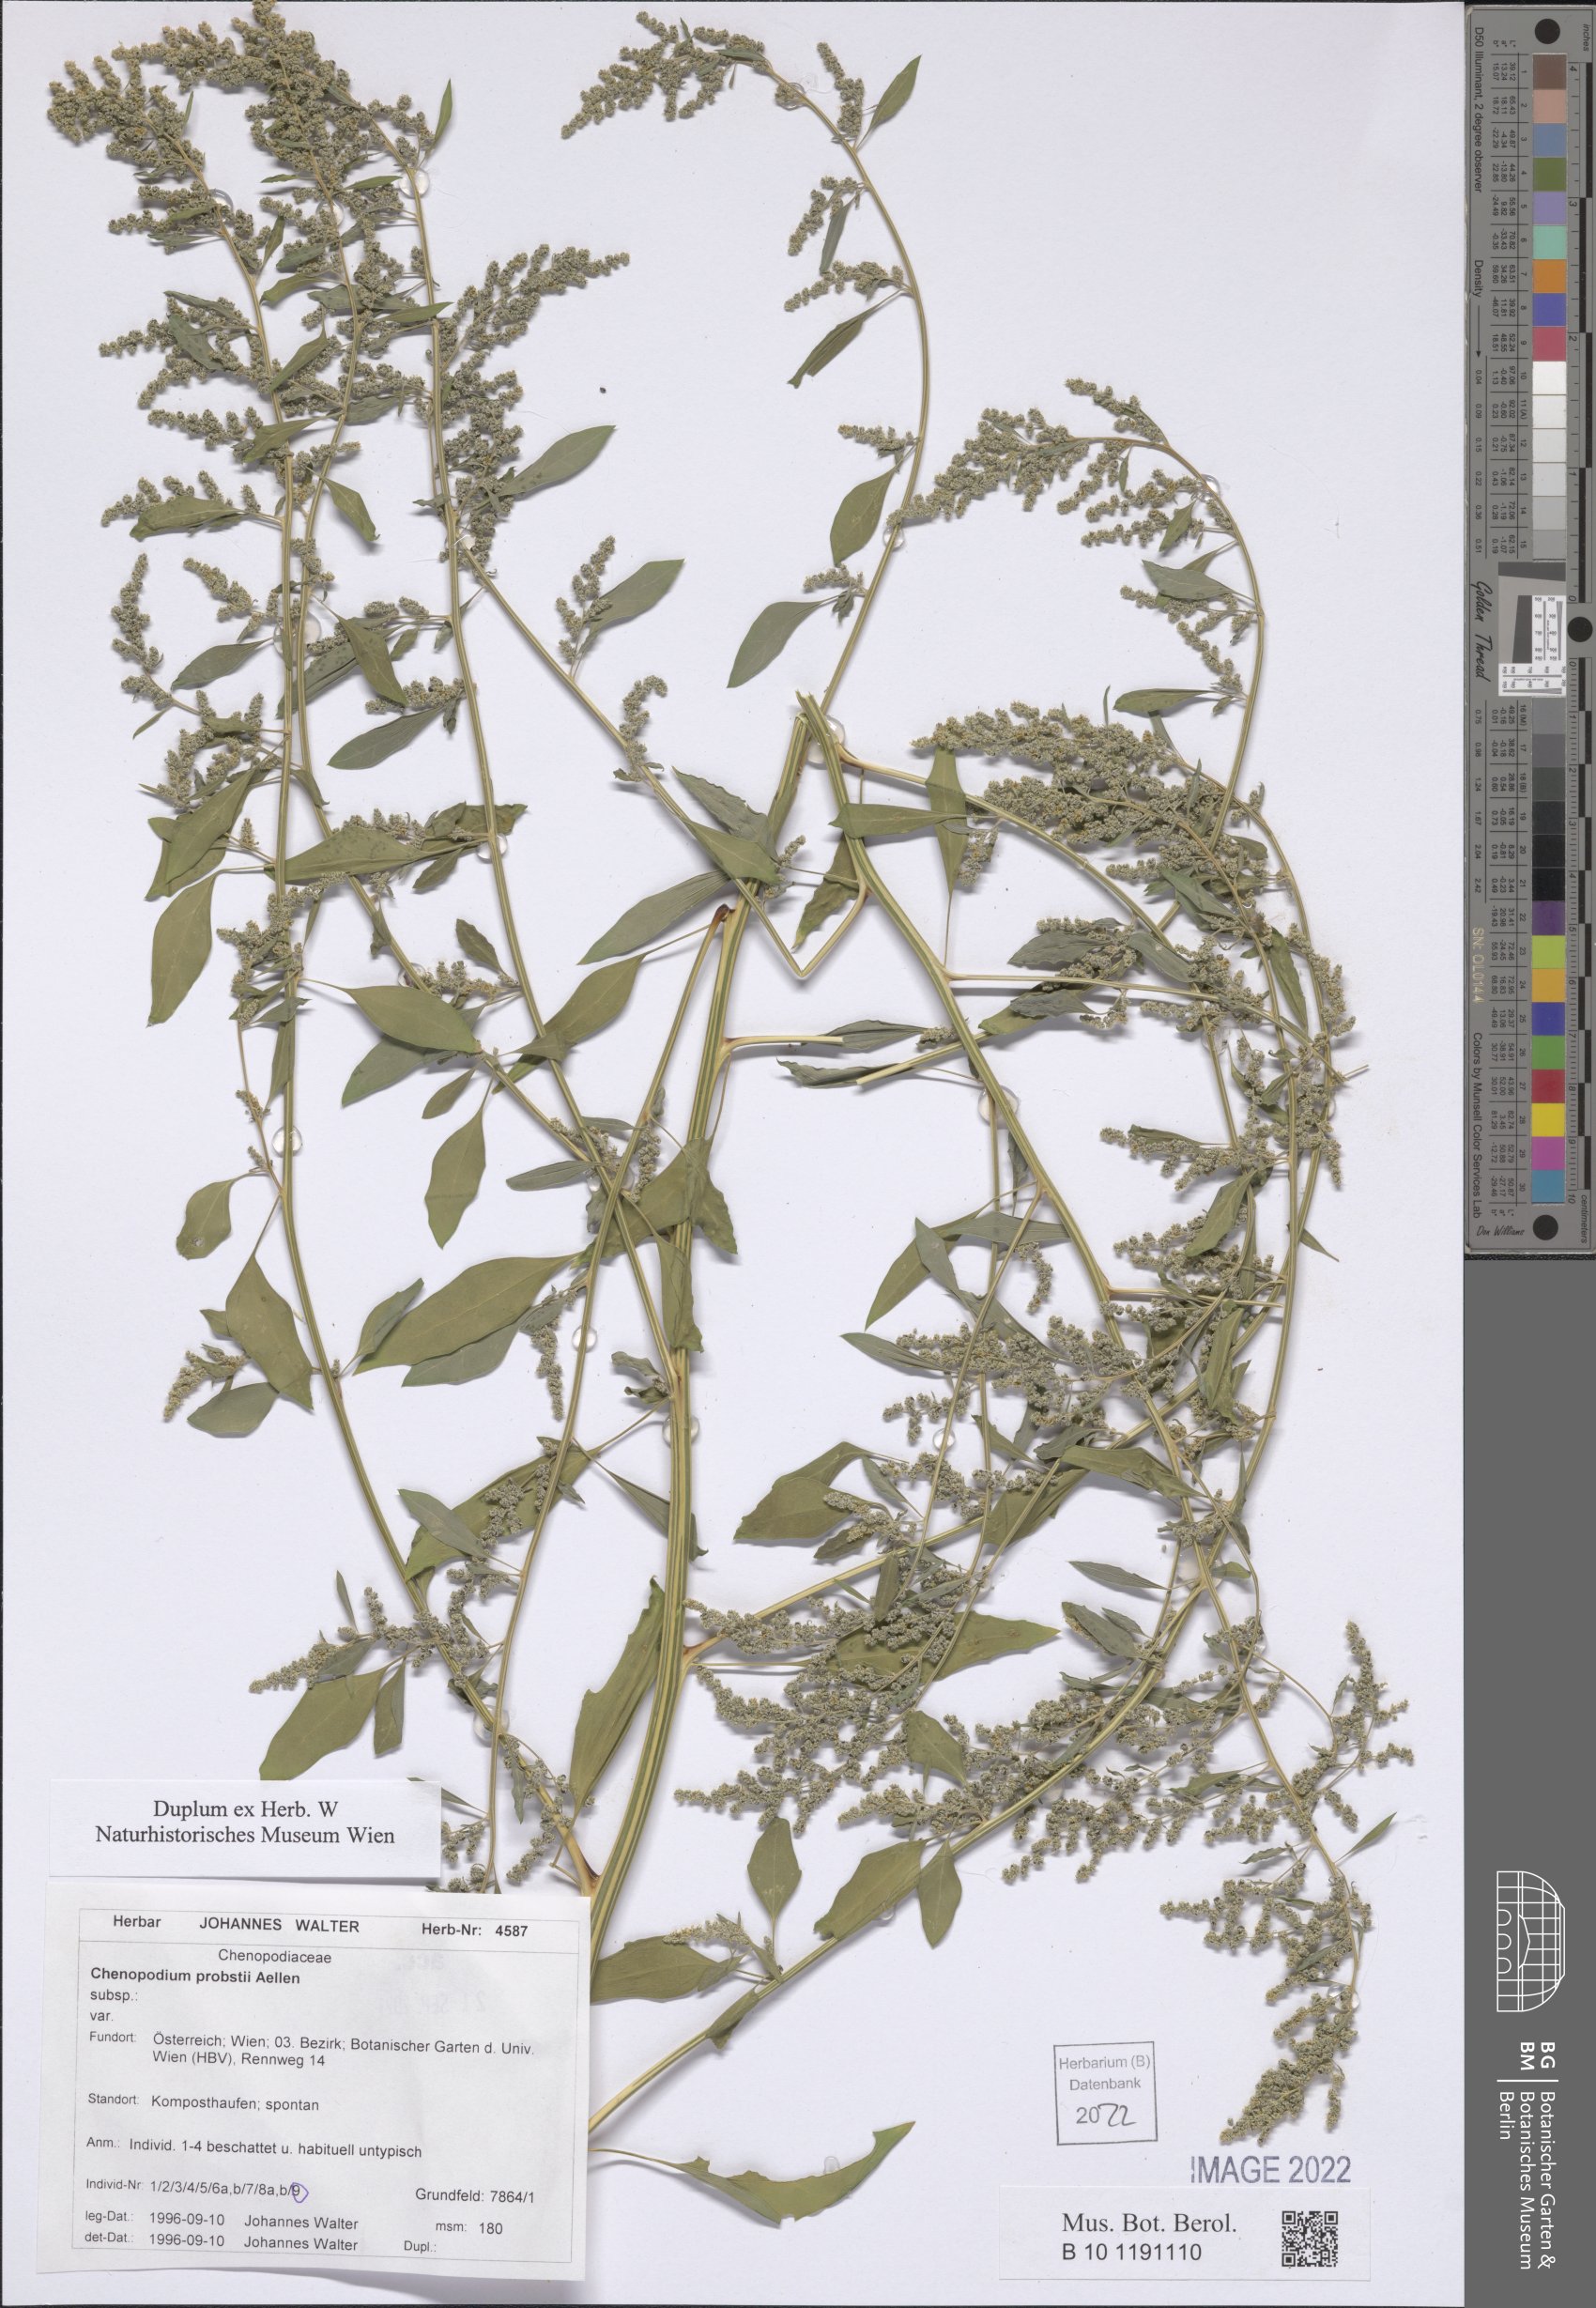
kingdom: Plantae
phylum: Tracheophyta
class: Magnoliopsida
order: Caryophyllales
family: Amaranthaceae
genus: Chenopodium
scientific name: Chenopodium probstii
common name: Probst's goosefoot
